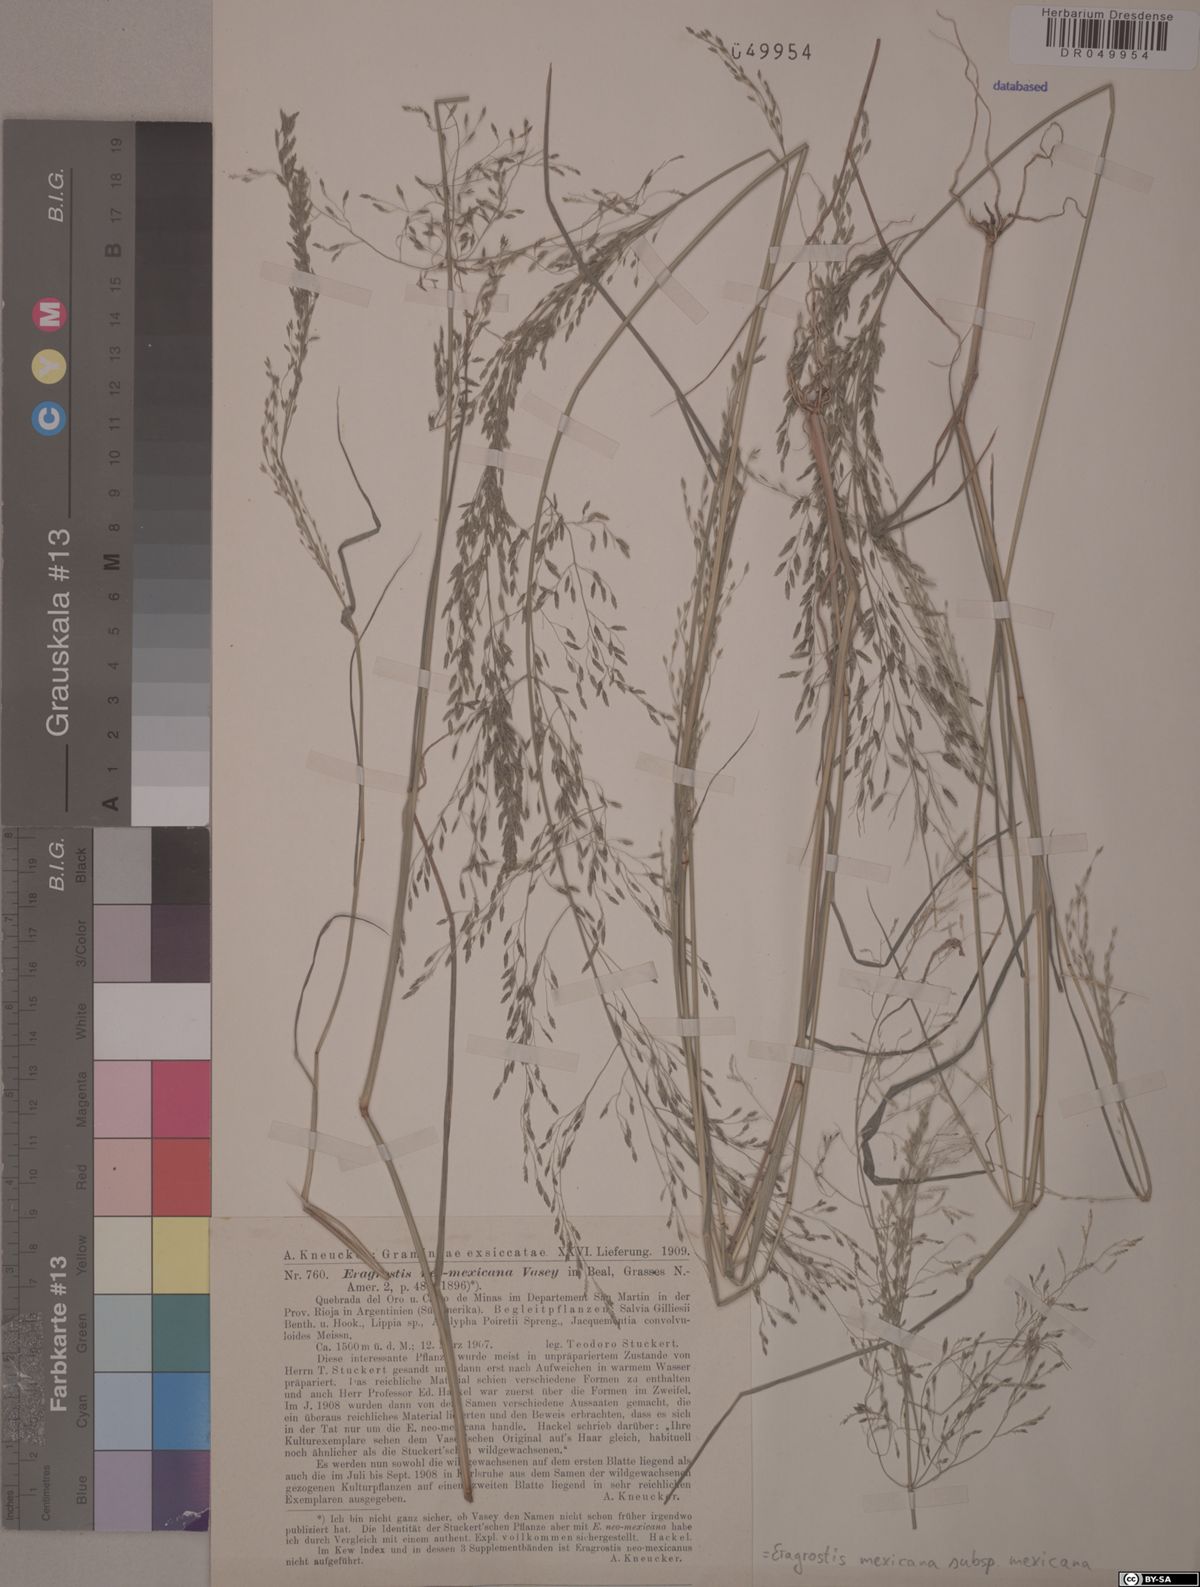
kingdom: Plantae
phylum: Tracheophyta
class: Liliopsida
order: Poales
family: Poaceae
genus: Eragrostis
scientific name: Eragrostis mexicana
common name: Mexican love grass
